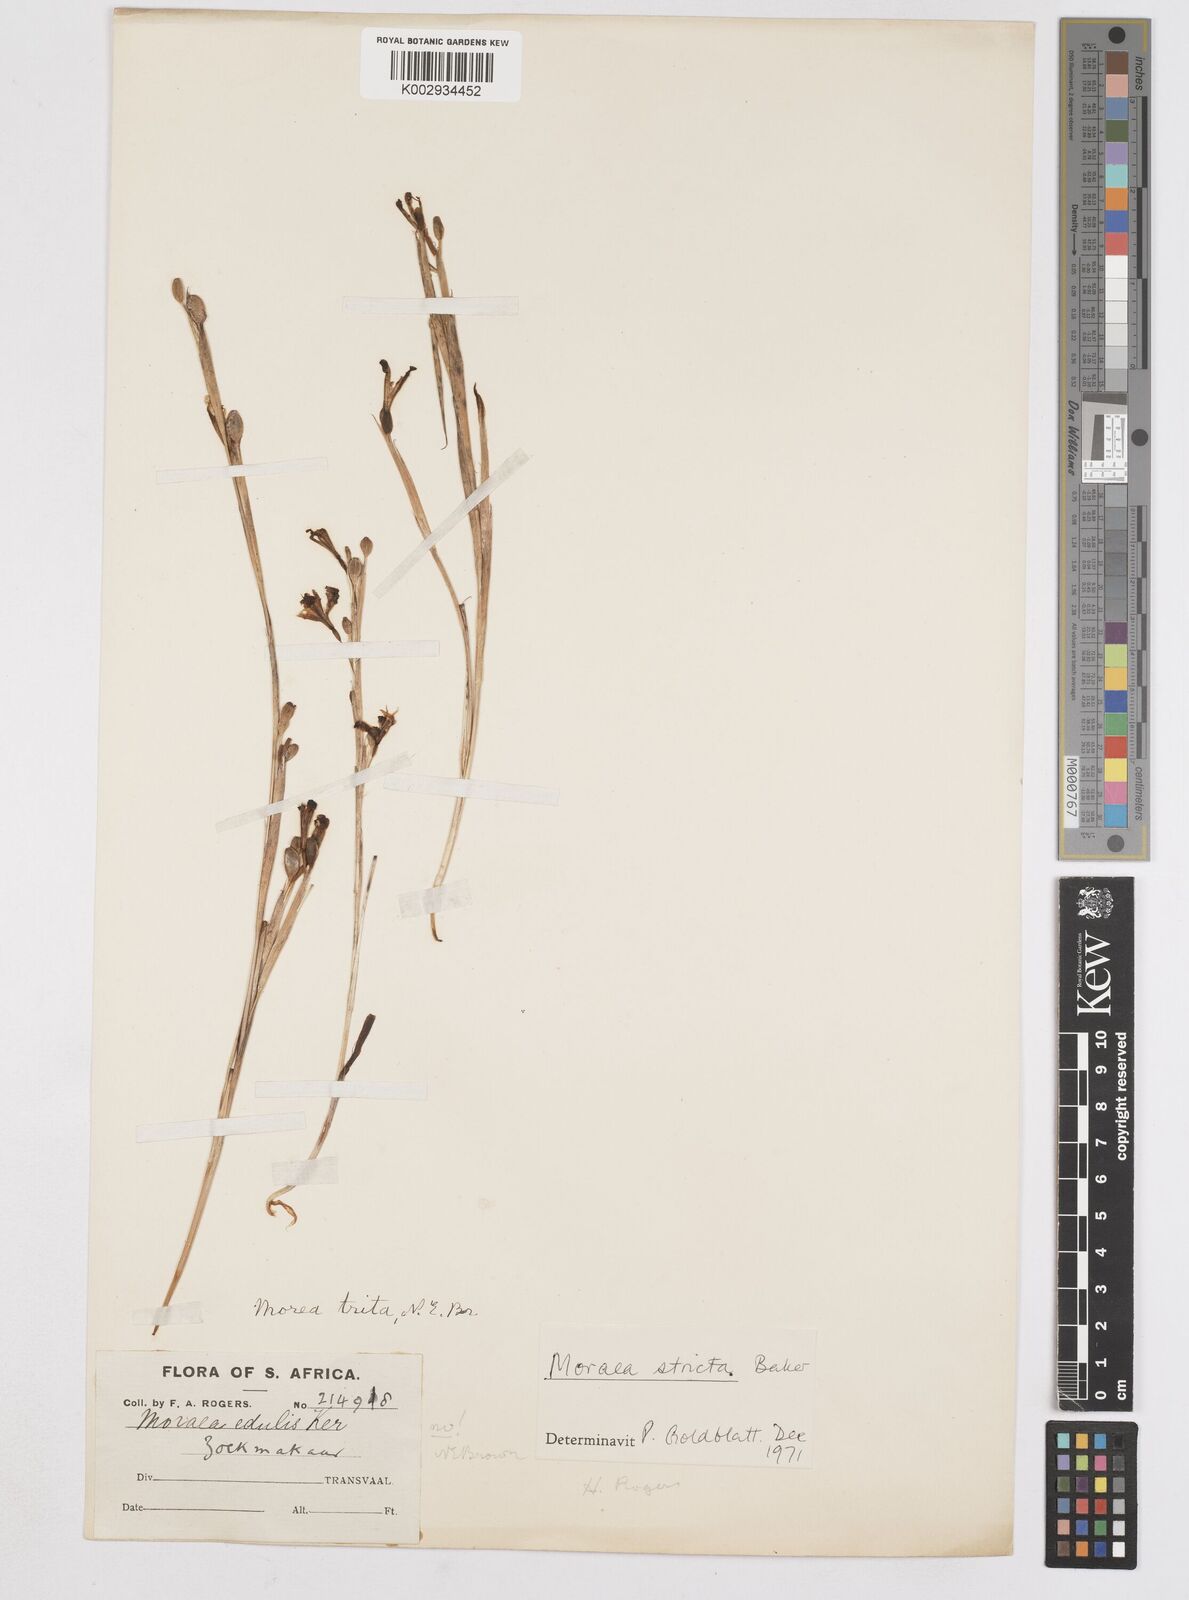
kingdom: Plantae
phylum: Tracheophyta
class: Liliopsida
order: Asparagales
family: Iridaceae
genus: Moraea
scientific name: Moraea stricta
